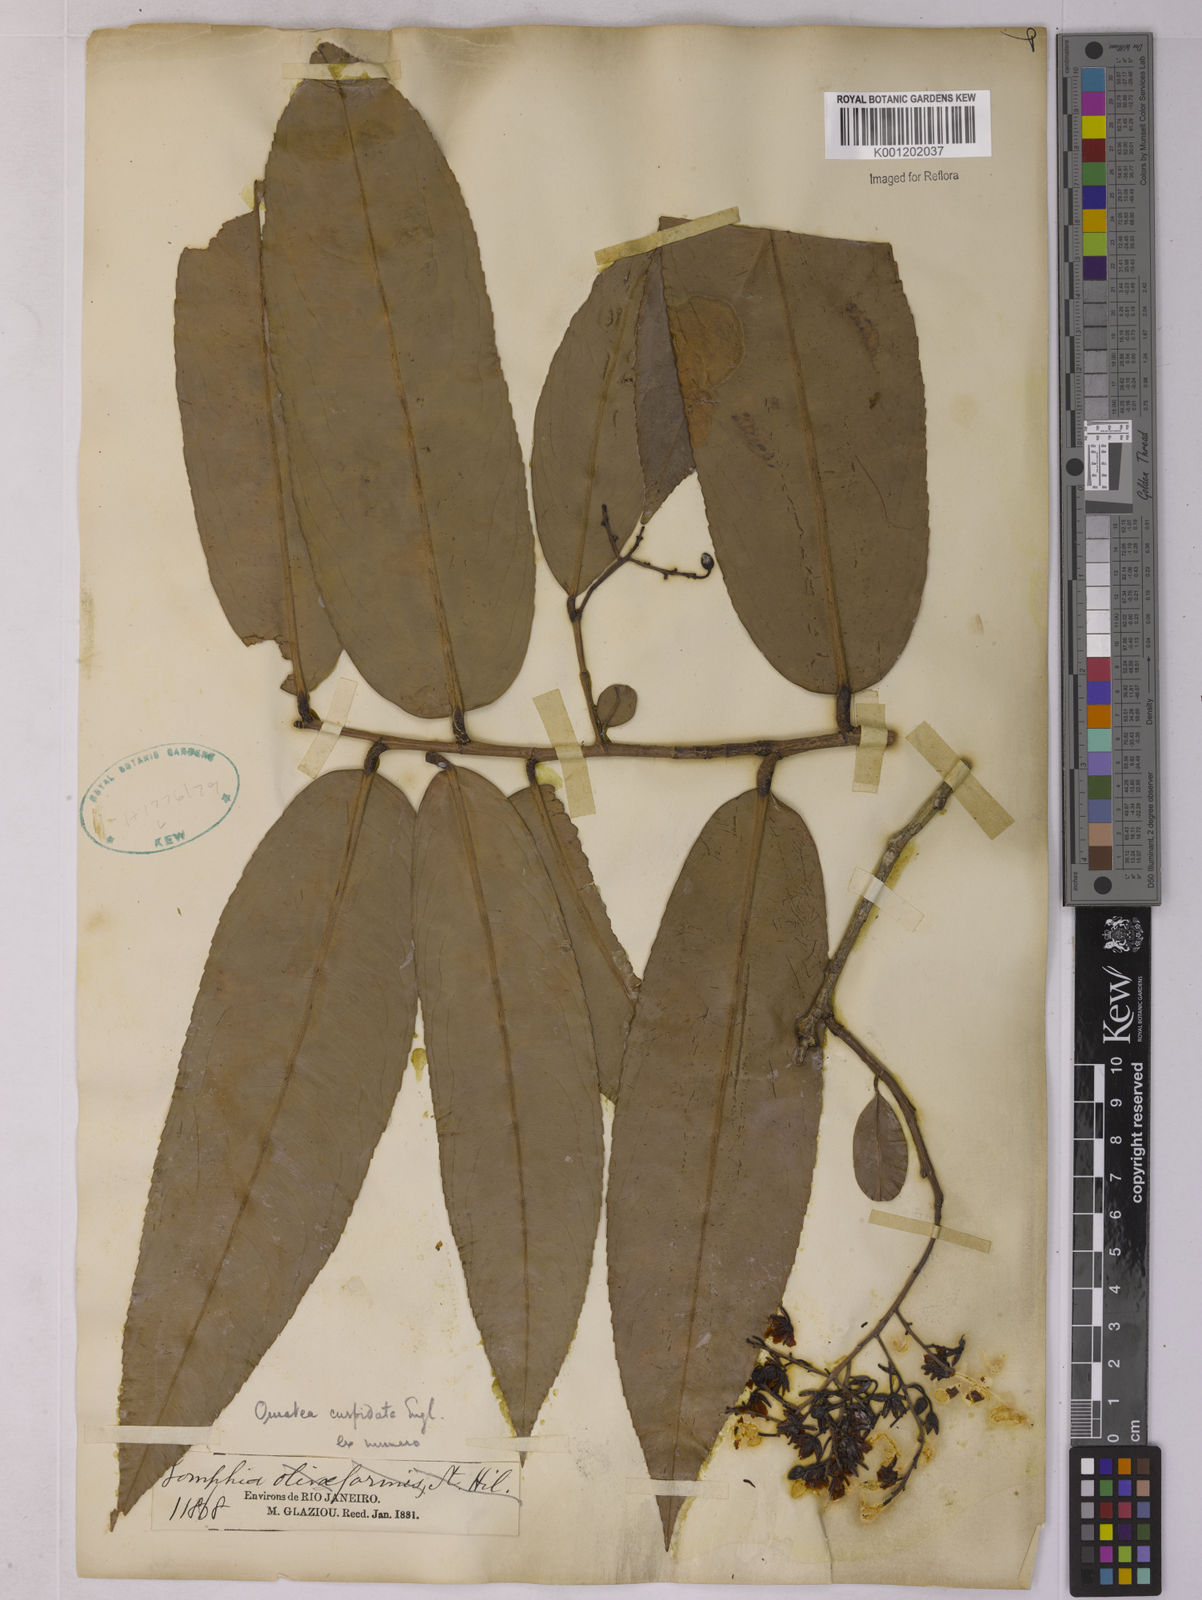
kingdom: Plantae
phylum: Tracheophyta
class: Magnoliopsida
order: Malpighiales
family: Ochnaceae
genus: Ouratea
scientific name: Ouratea cuspidata
